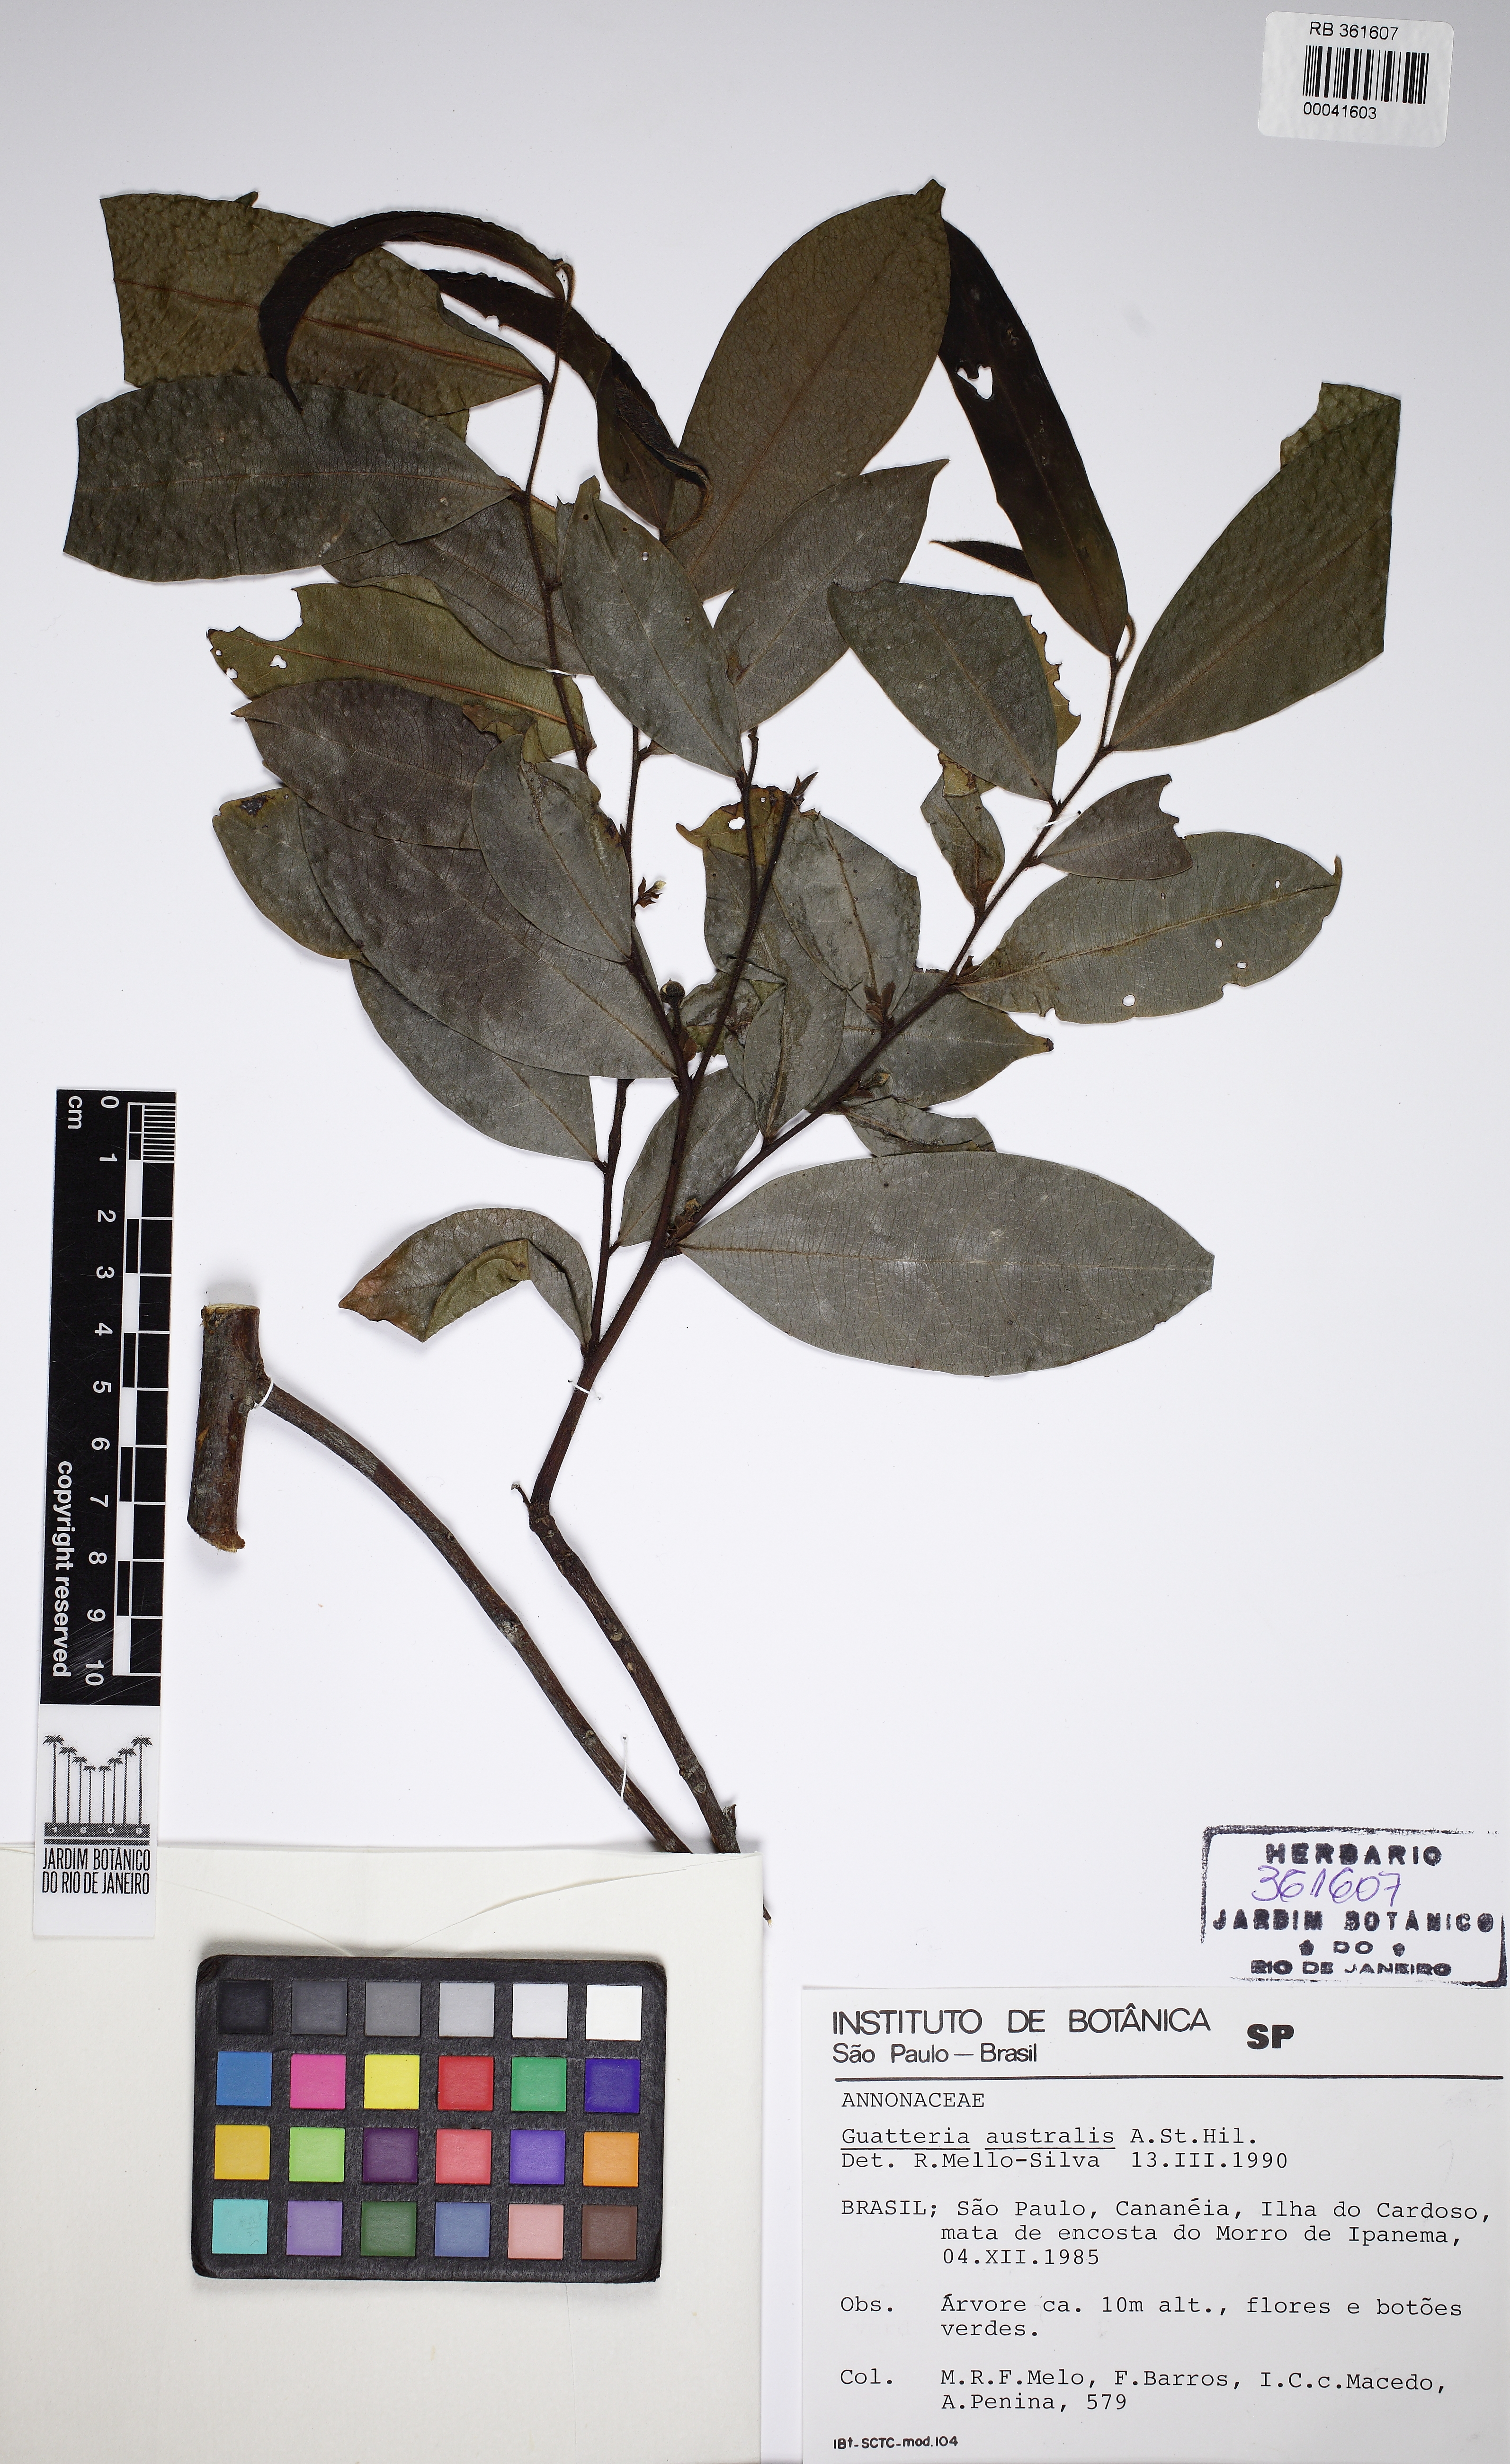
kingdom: Plantae
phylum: Tracheophyta
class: Magnoliopsida
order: Magnoliales
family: Annonaceae
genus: Guatteria
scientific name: Guatteria australis
